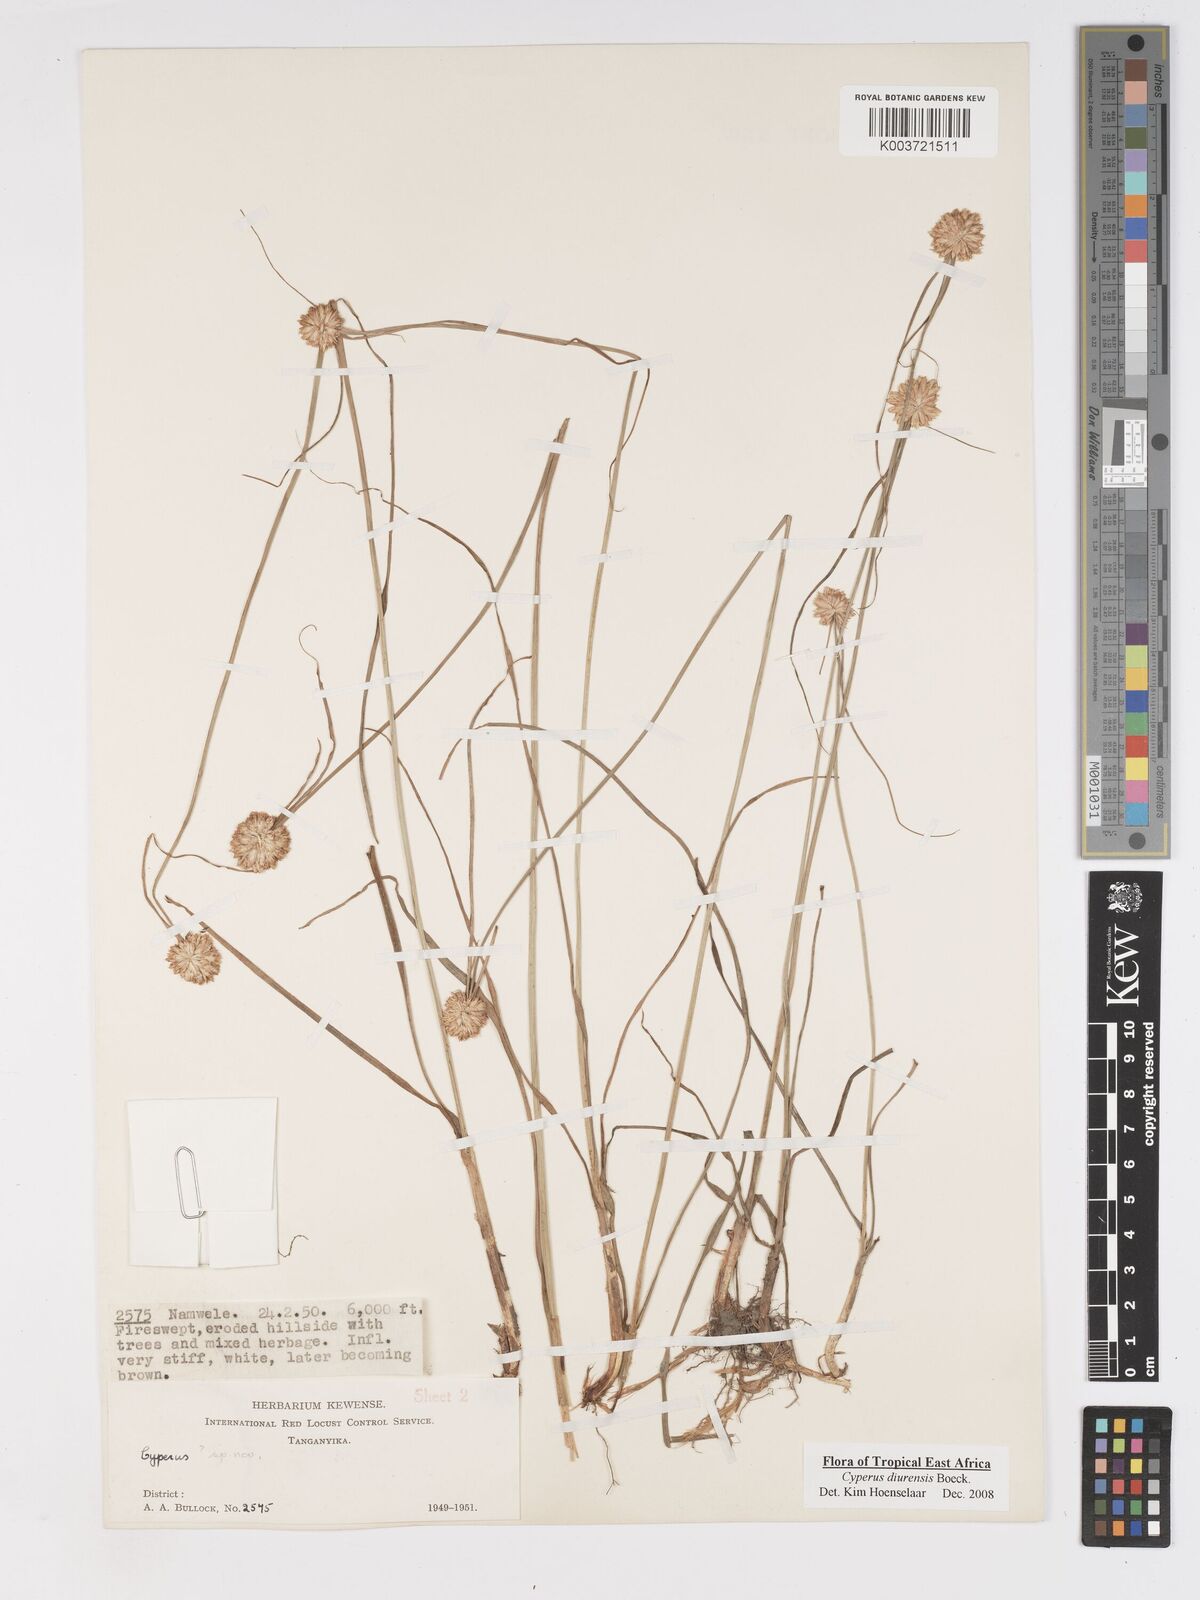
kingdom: Plantae
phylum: Tracheophyta
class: Liliopsida
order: Poales
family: Cyperaceae
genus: Cyperus
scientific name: Cyperus diurensis
